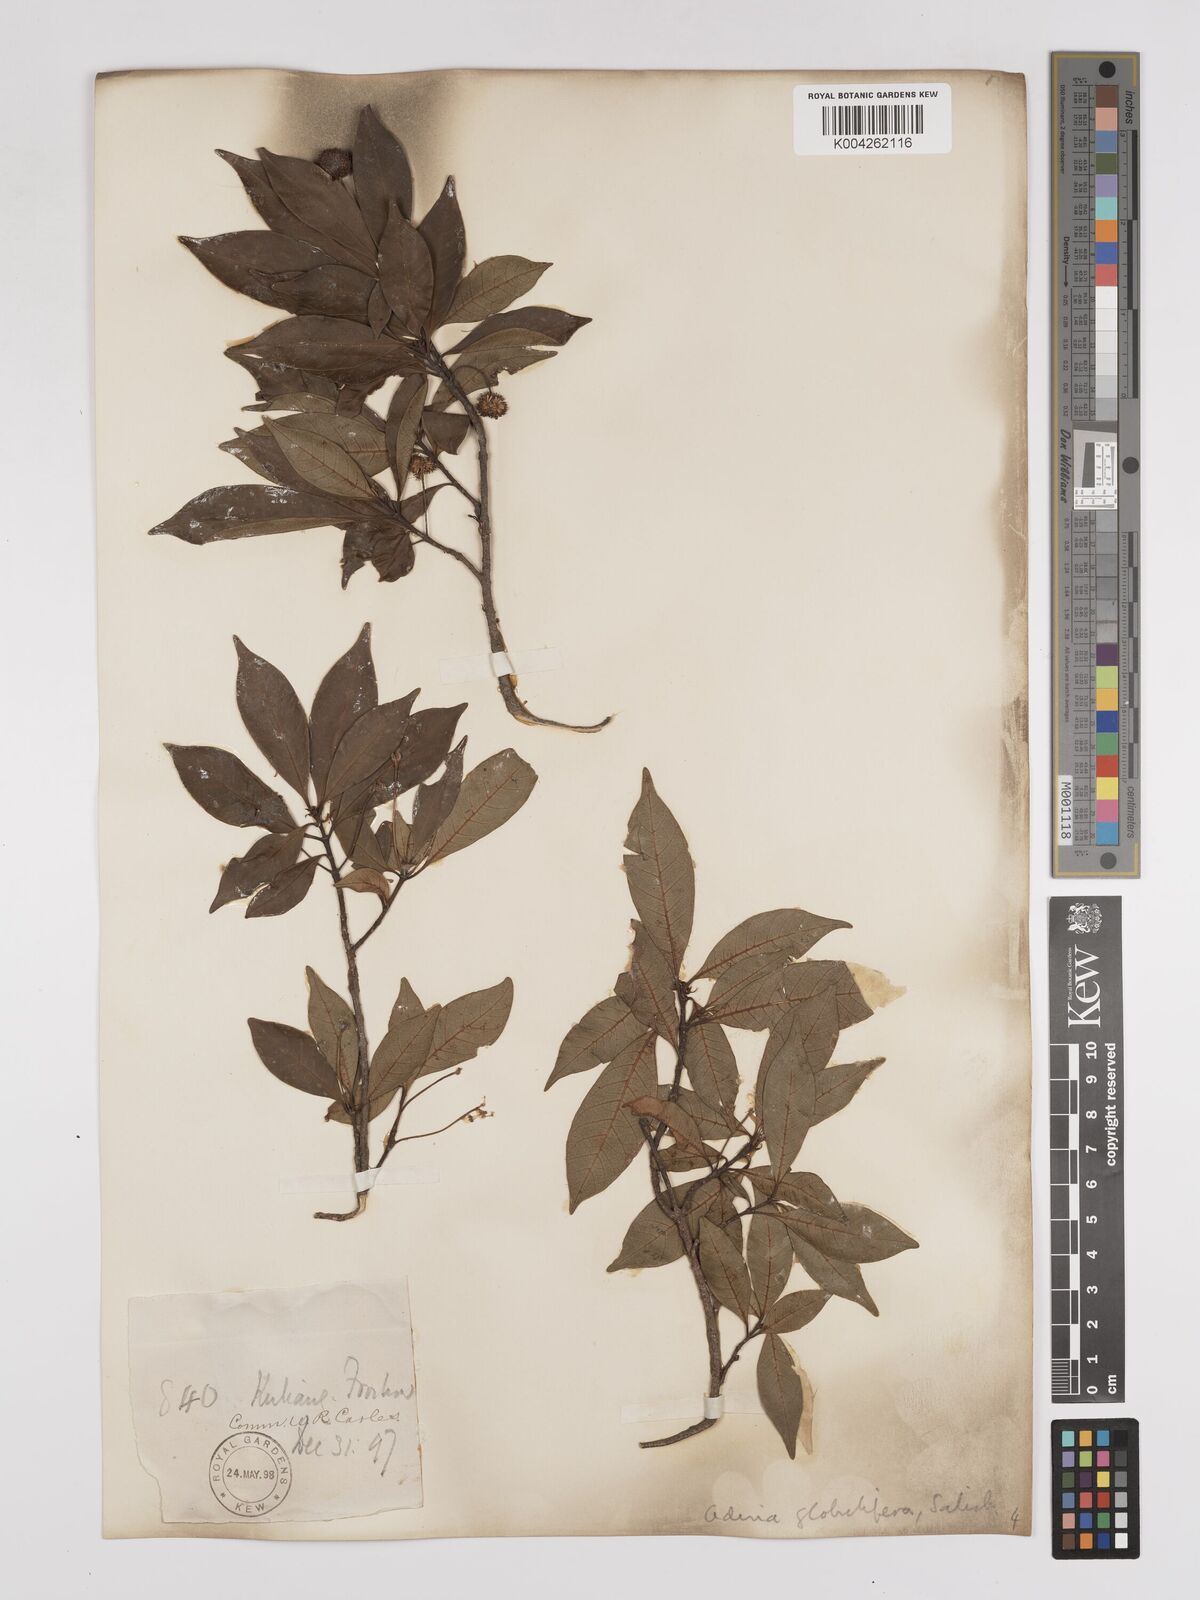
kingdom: Plantae
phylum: Tracheophyta
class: Magnoliopsida
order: Gentianales
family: Rubiaceae
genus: Adina
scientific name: Adina pilulifera
